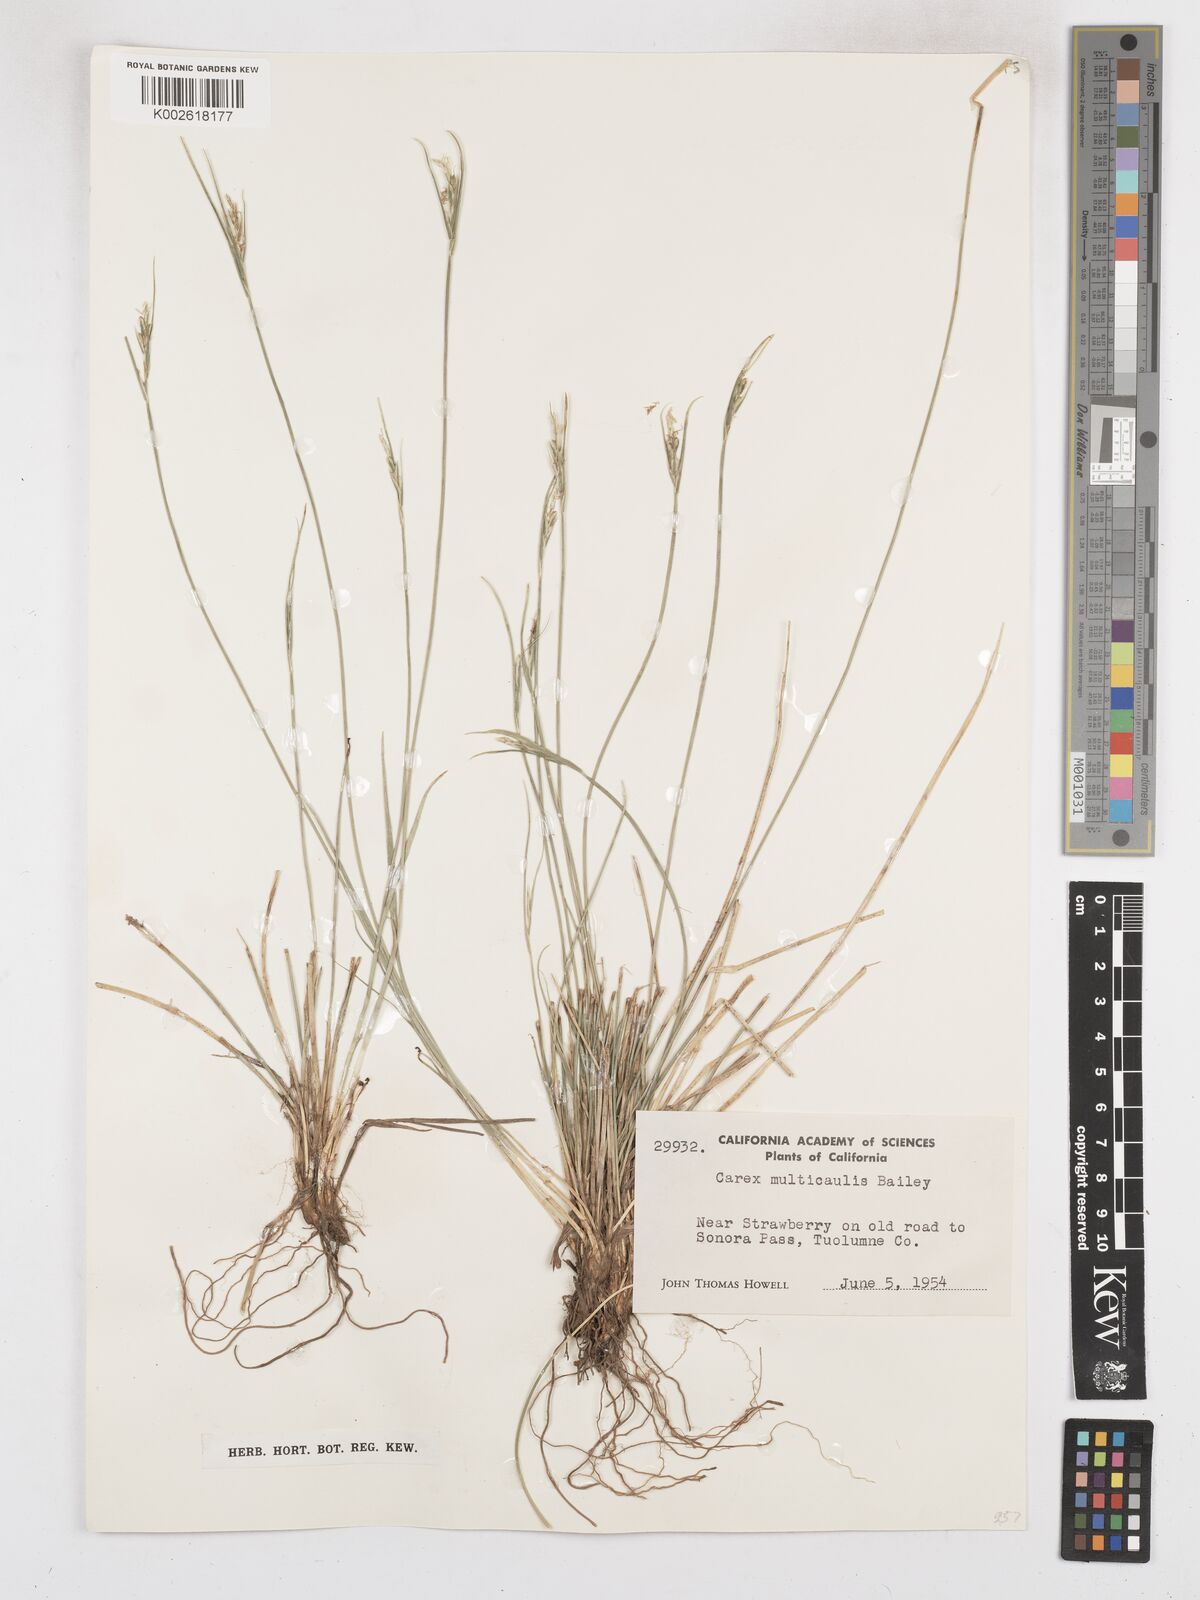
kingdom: Plantae
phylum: Tracheophyta
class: Liliopsida
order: Poales
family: Cyperaceae
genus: Carex
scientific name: Carex multicaulis
